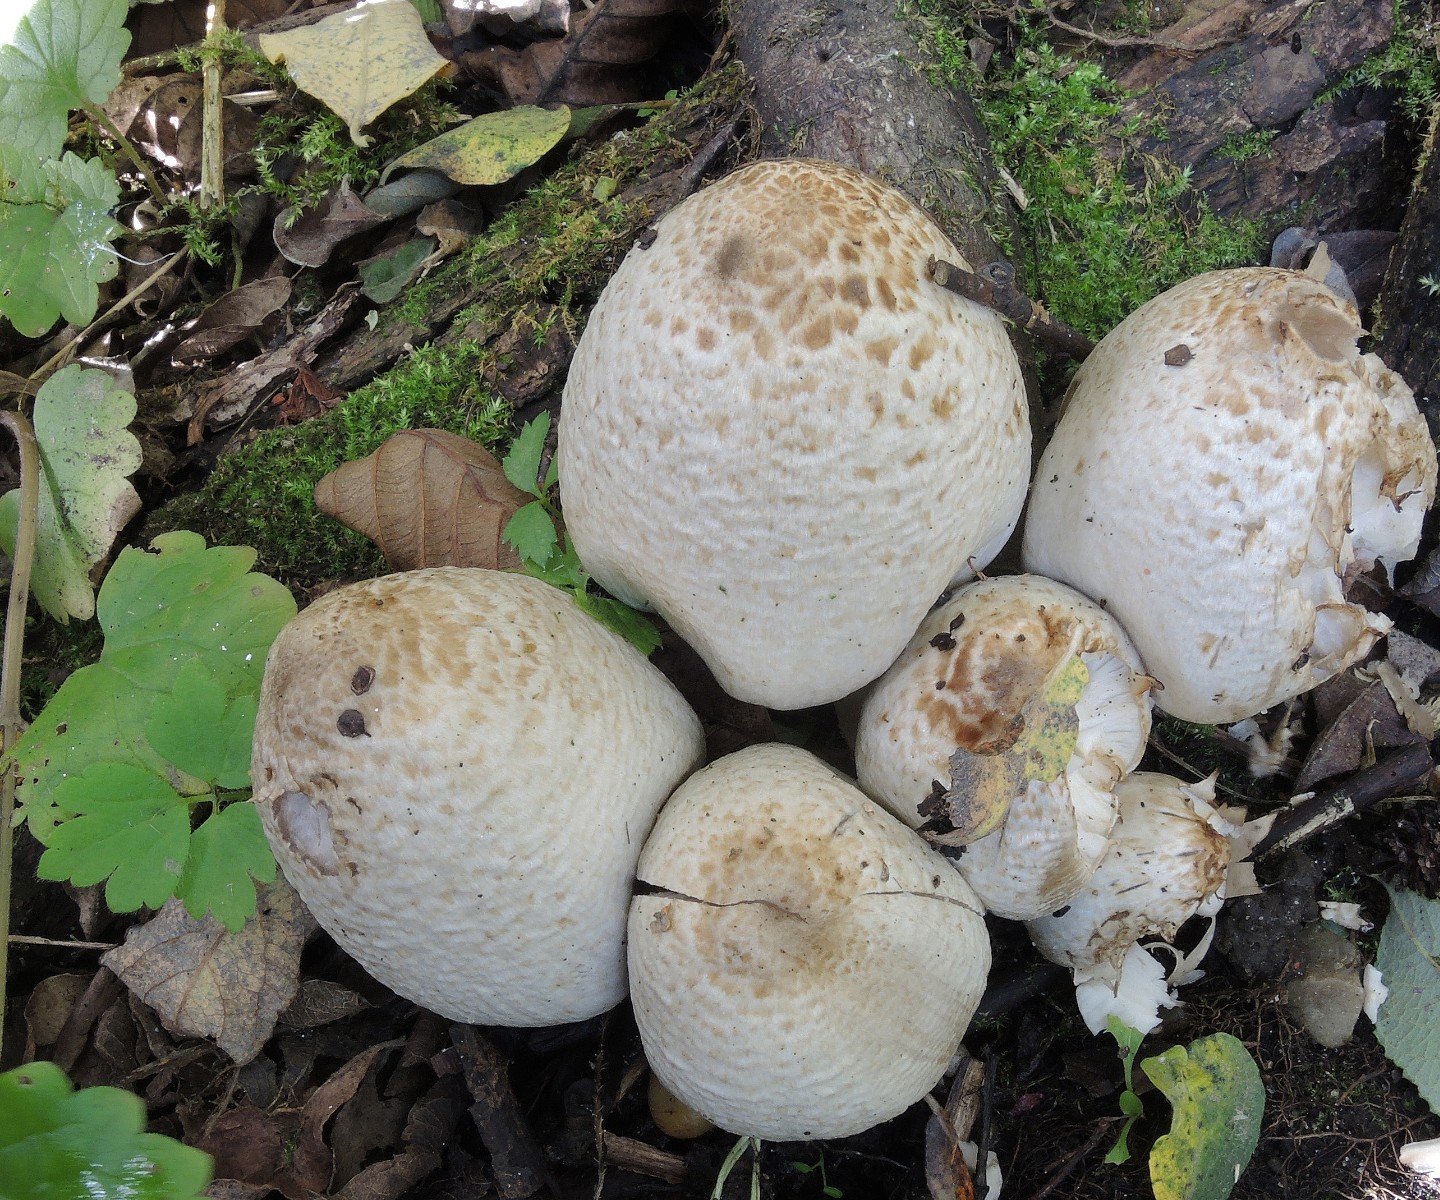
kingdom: Fungi
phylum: Basidiomycota
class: Agaricomycetes
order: Agaricales
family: Psathyrellaceae
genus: Coprinopsis
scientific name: Coprinopsis romagnesiana
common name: brunskællet blækhat
